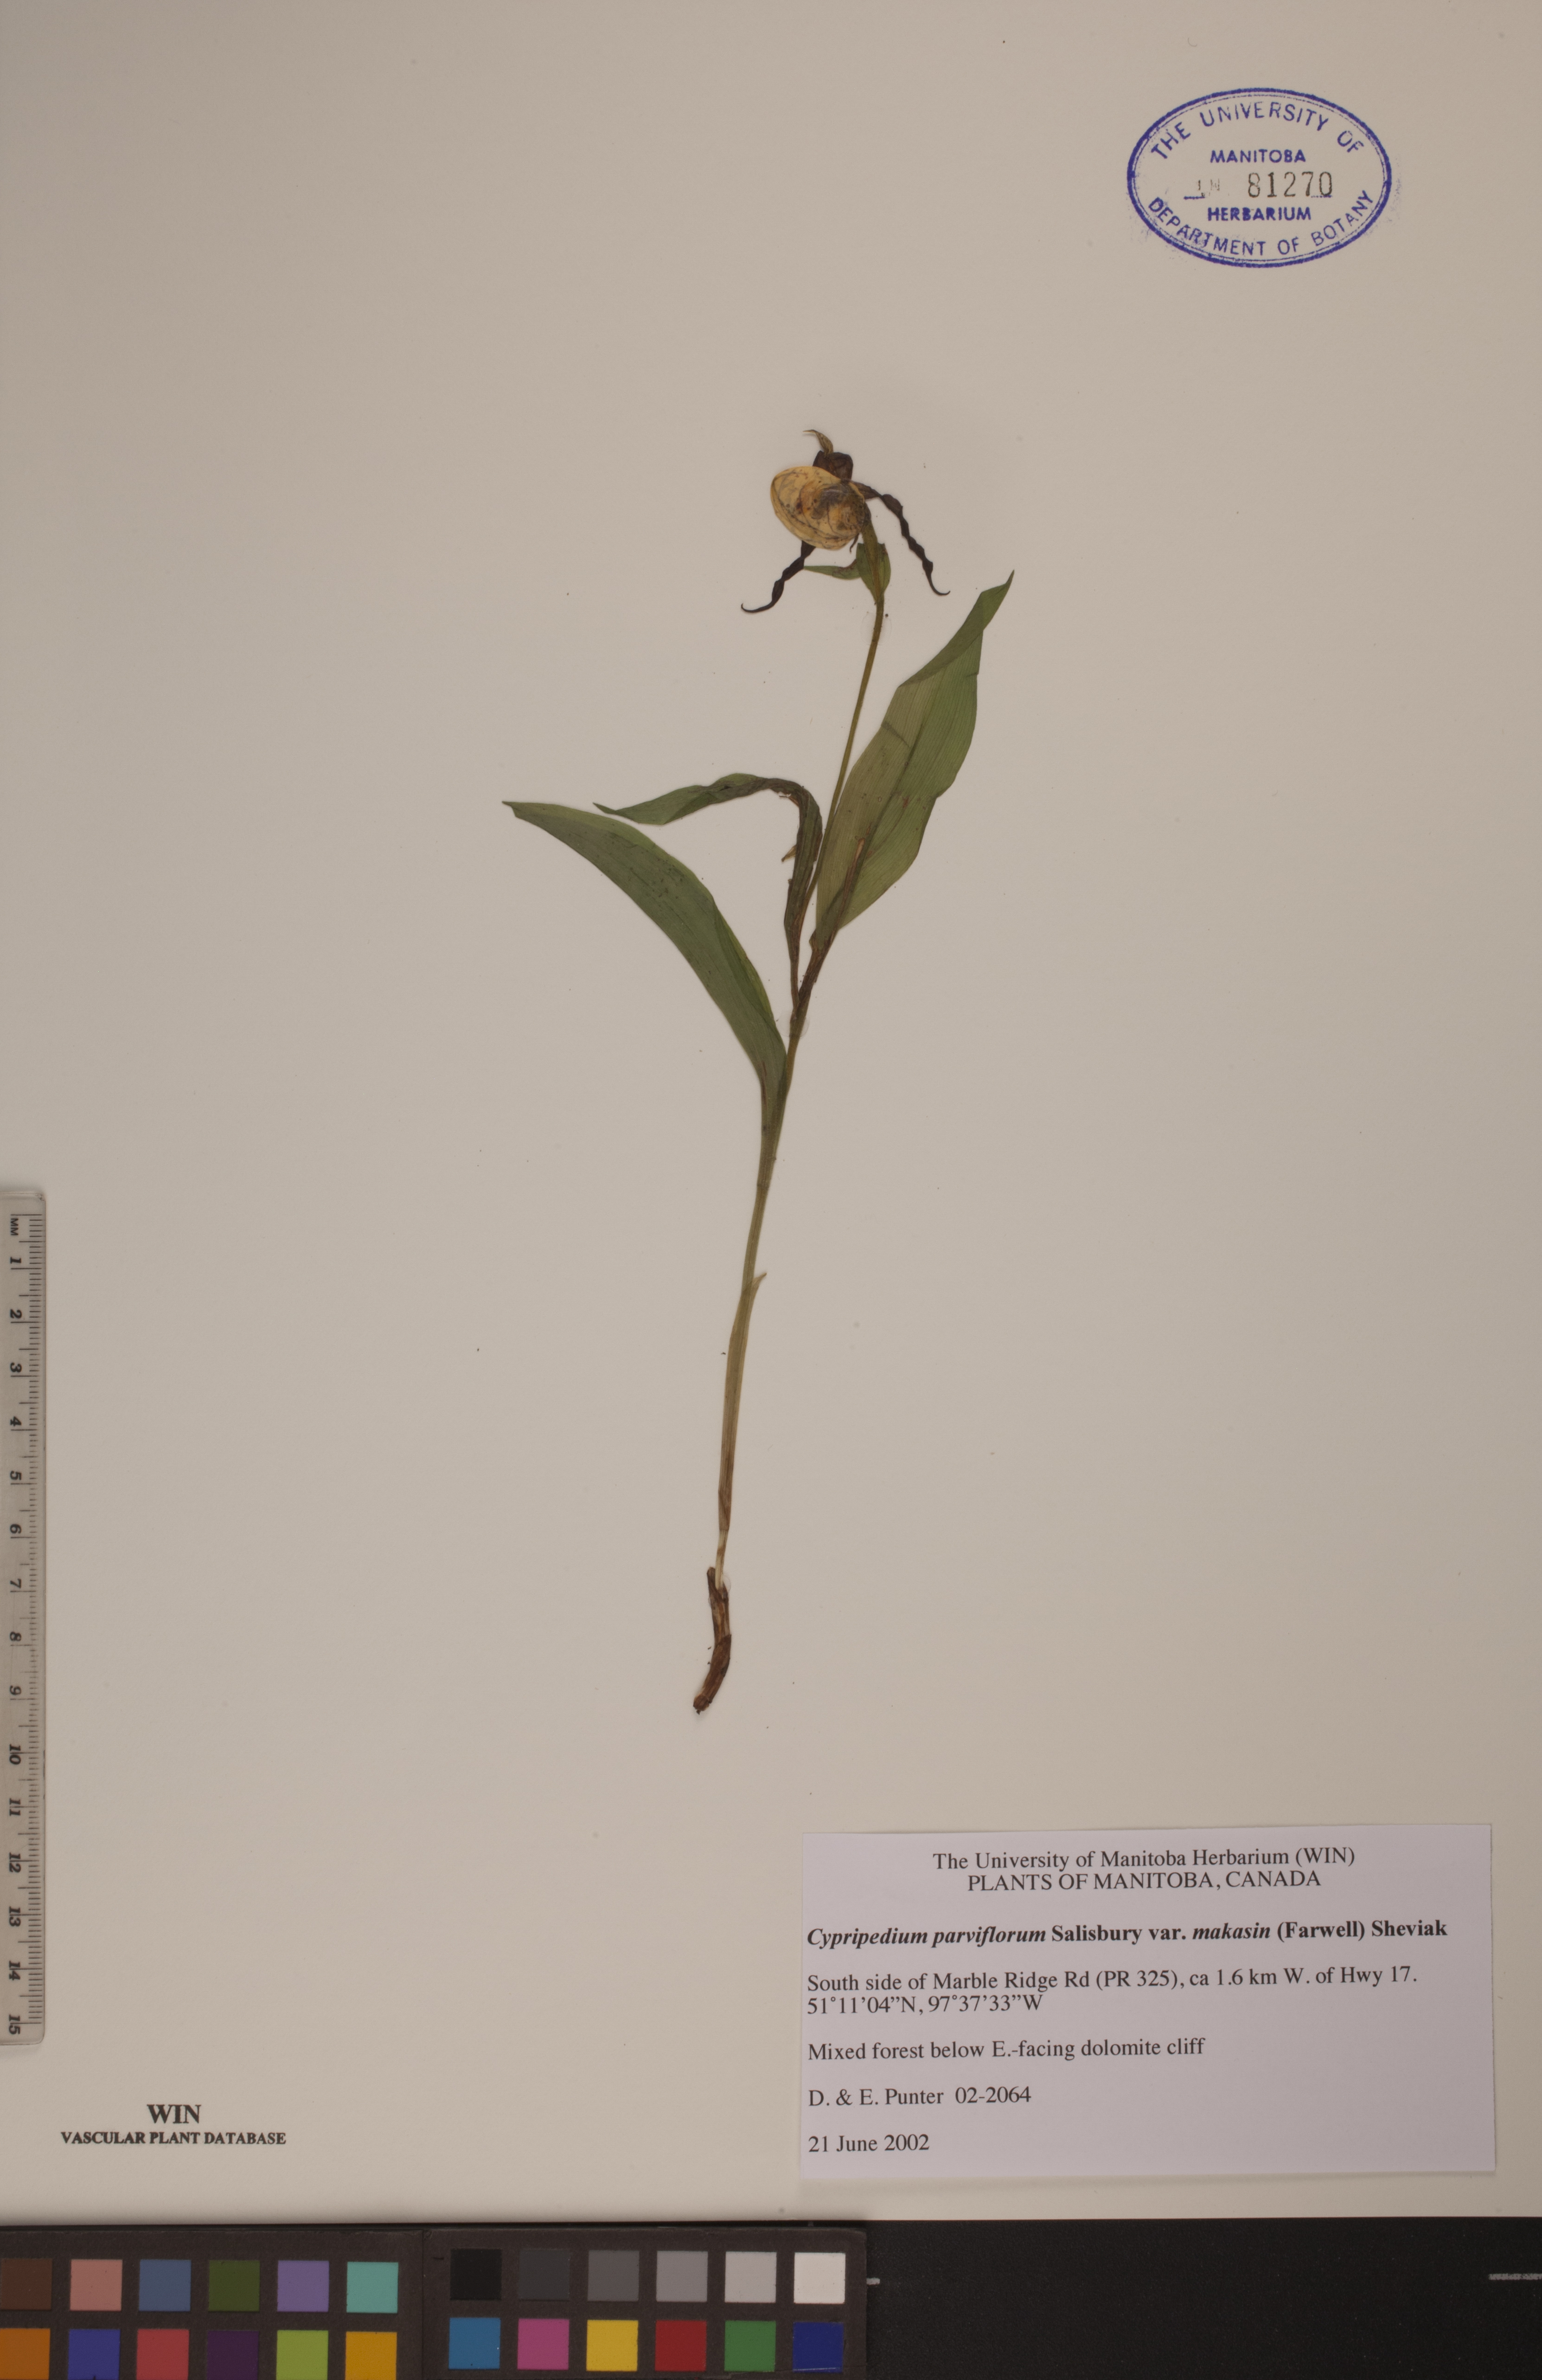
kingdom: Plantae
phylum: Tracheophyta
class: Liliopsida
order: Asparagales
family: Orchidaceae
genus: Cypripedium
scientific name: Cypripedium parviflorum
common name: American yellow lady's-slipper
